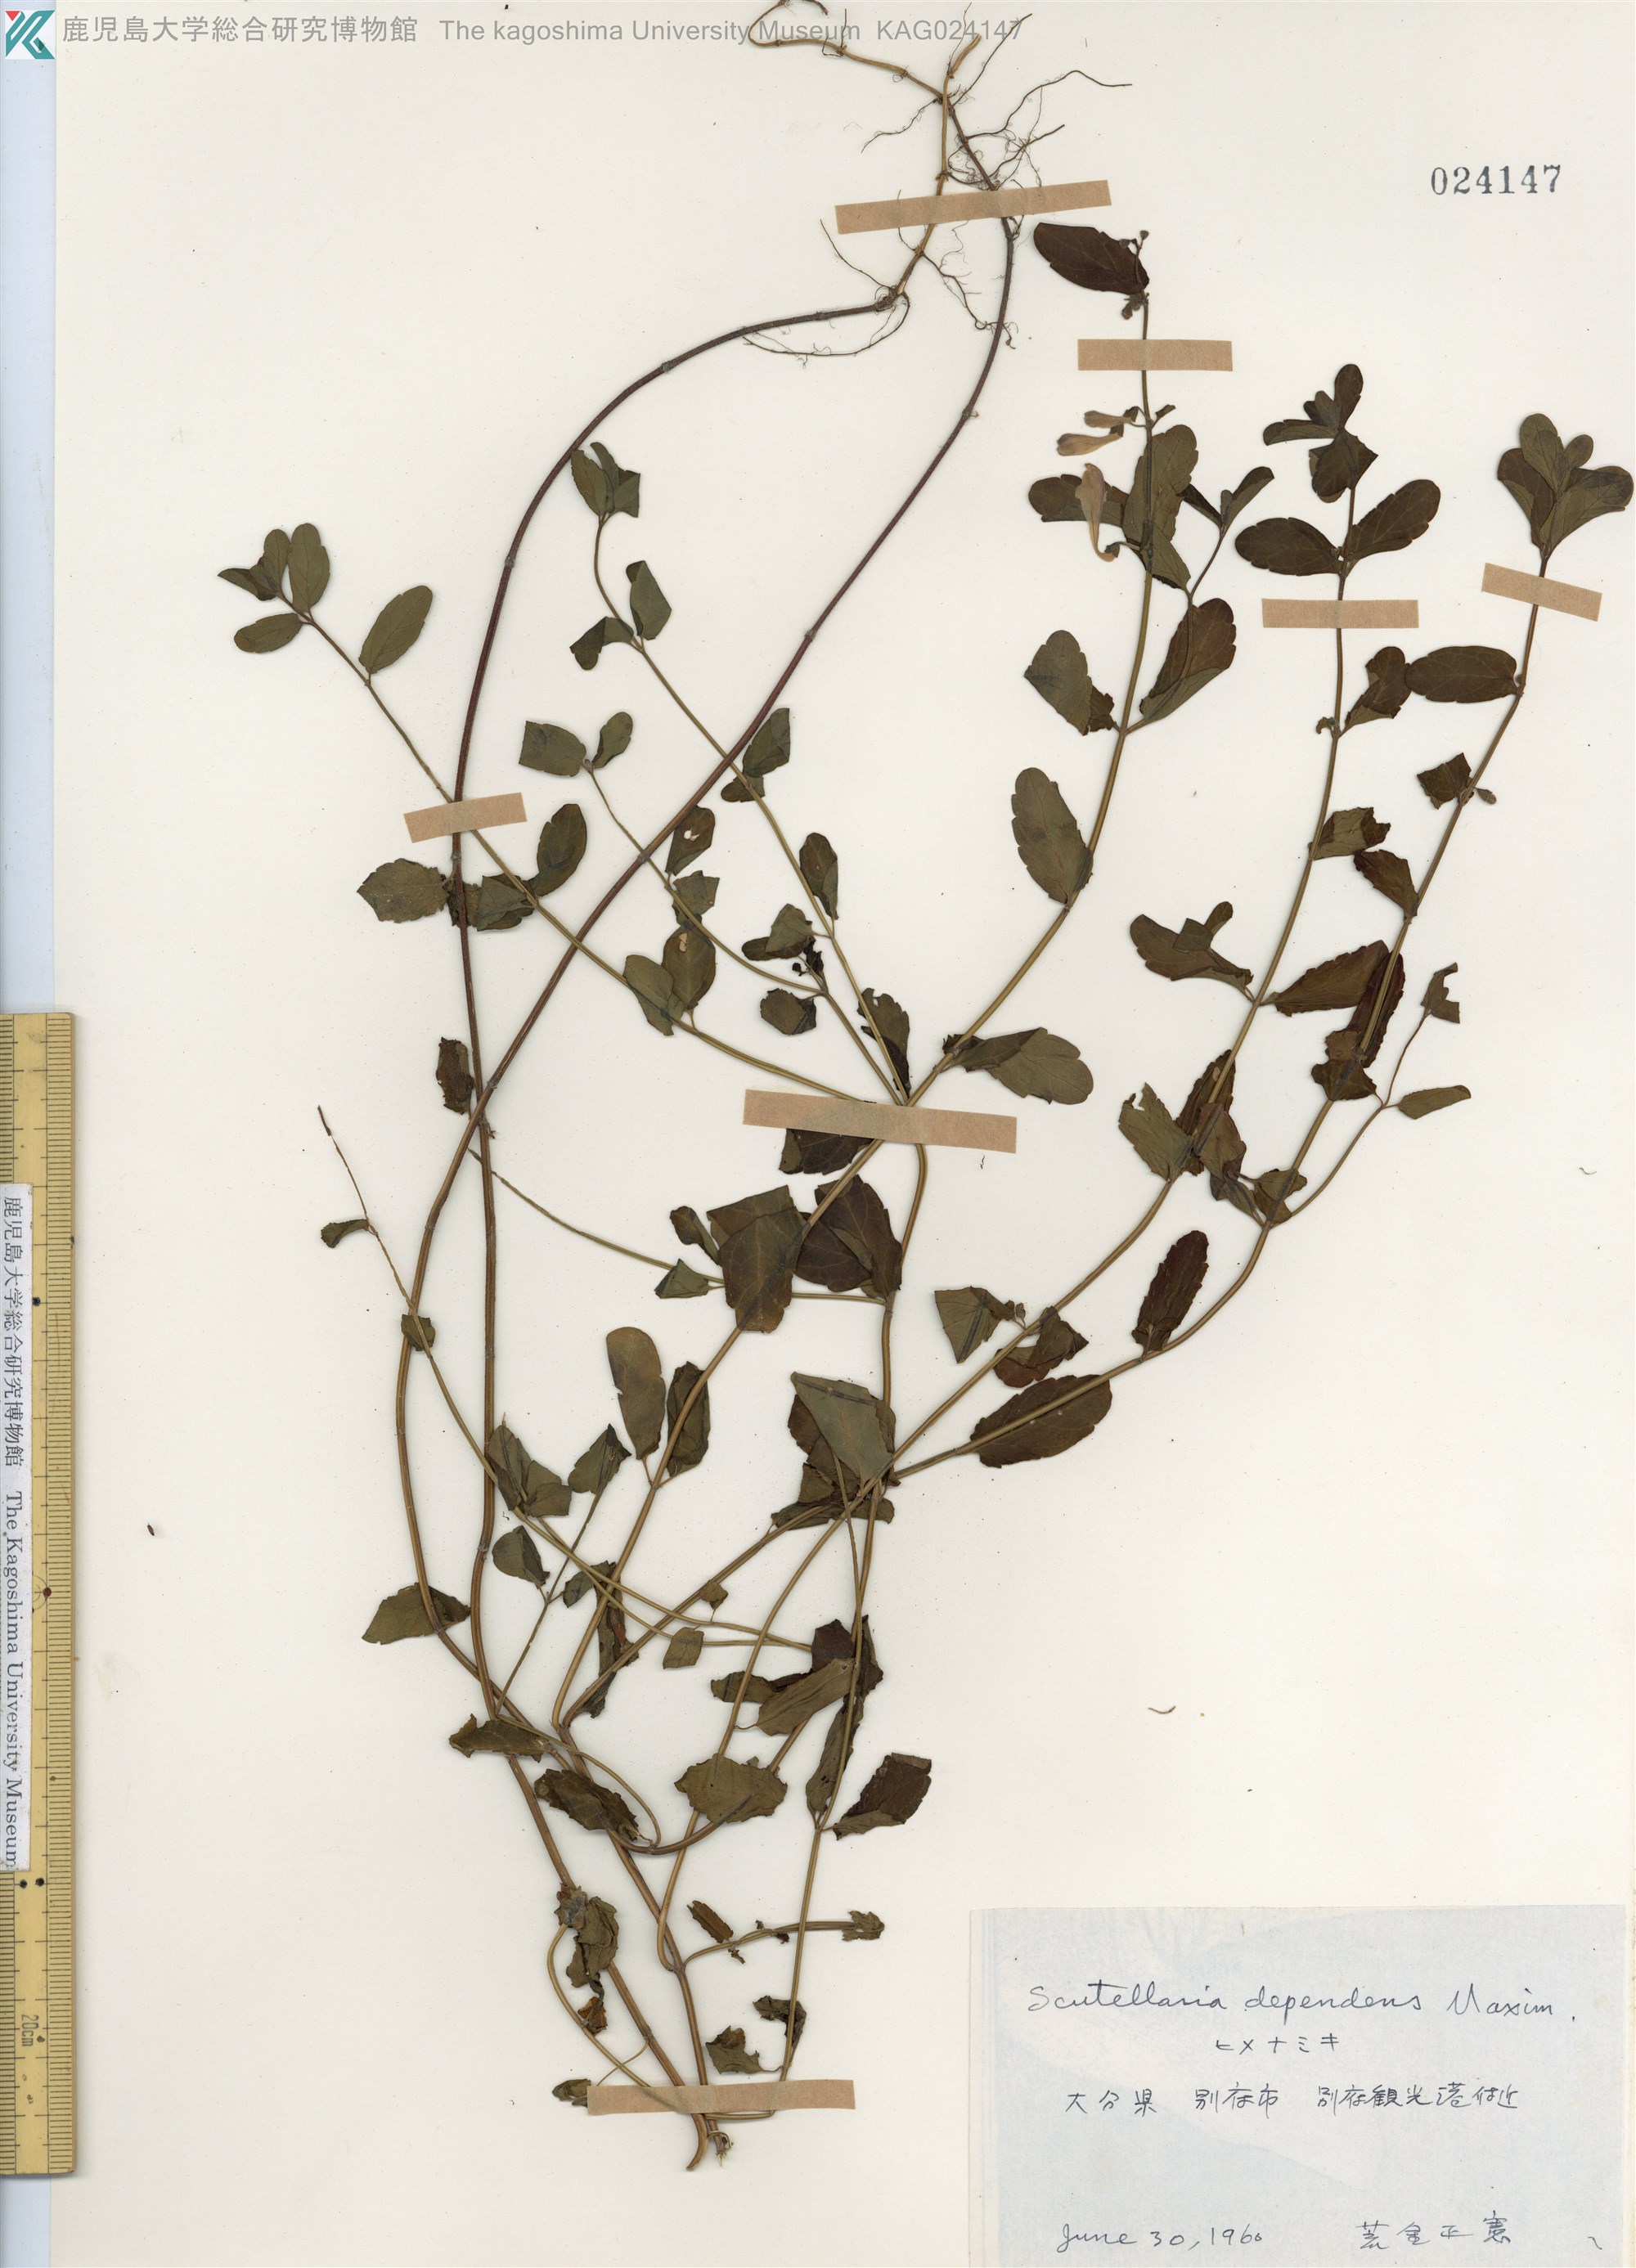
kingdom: Plantae
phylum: Tracheophyta
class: Magnoliopsida
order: Lamiales
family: Lamiaceae
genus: Scutellaria
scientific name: Scutellaria dependens
